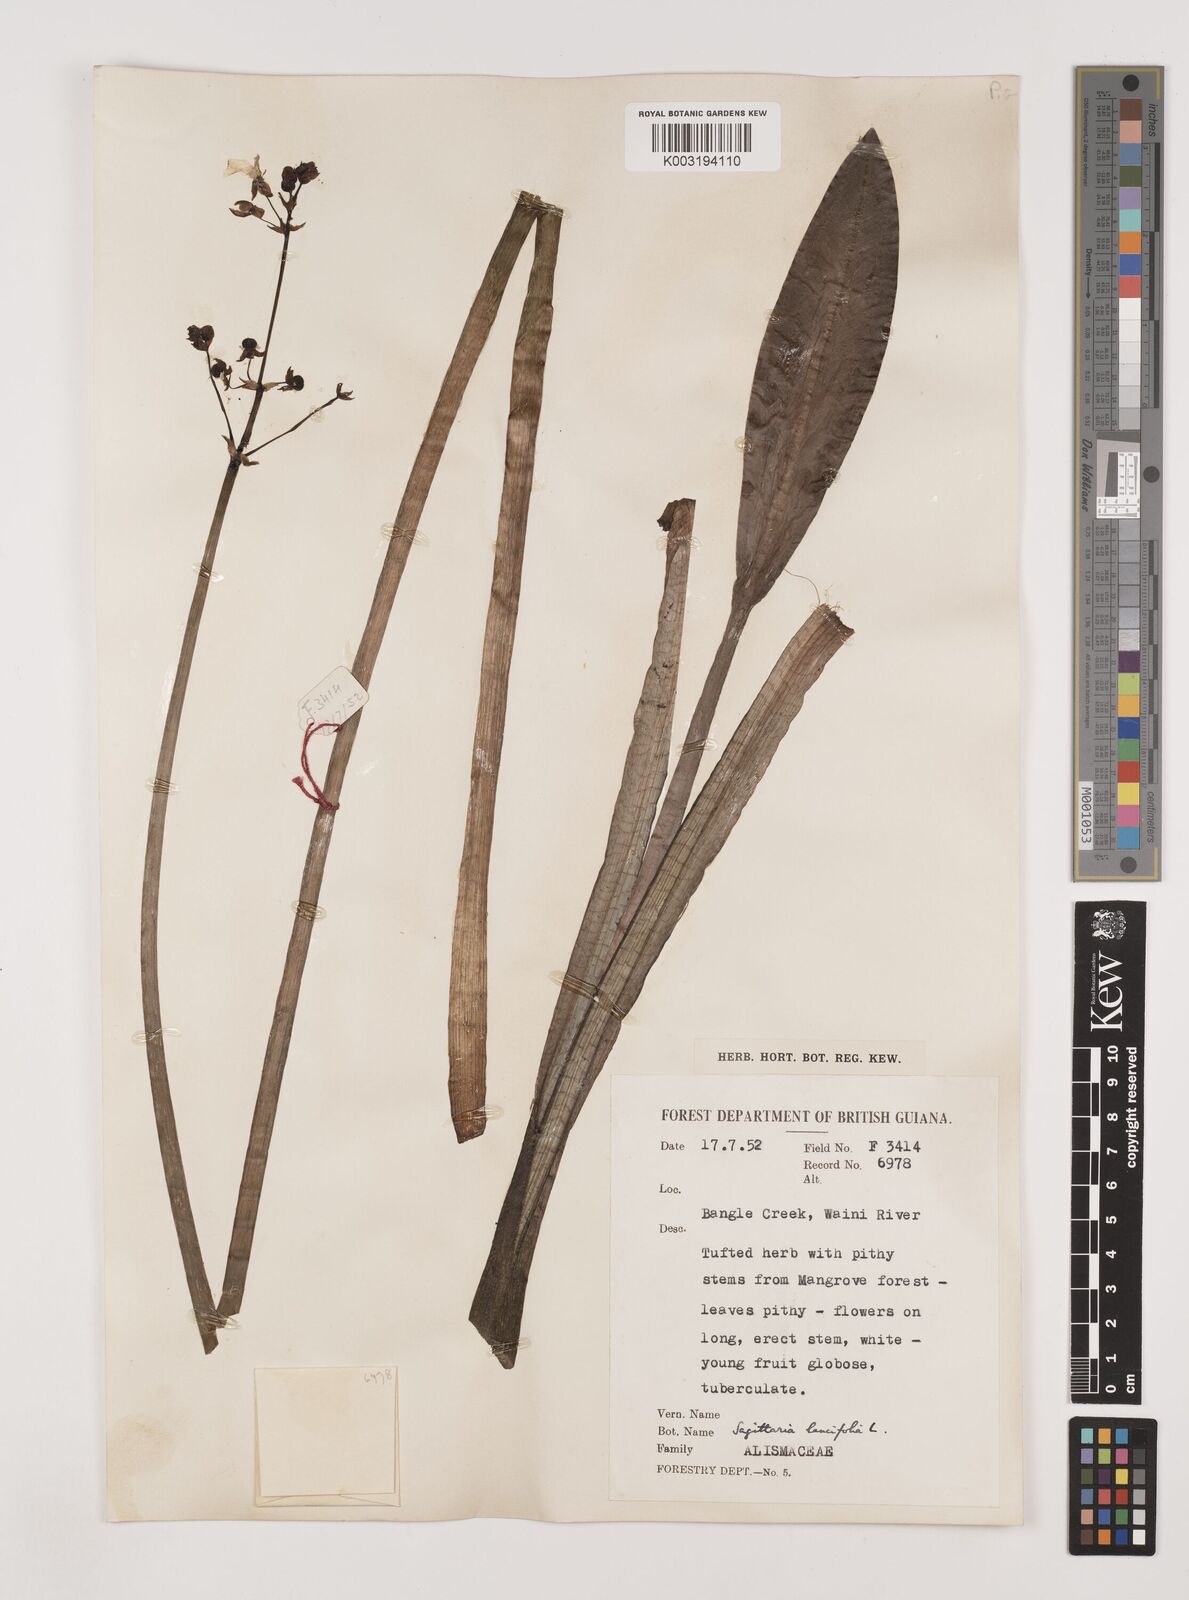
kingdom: Plantae
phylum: Tracheophyta
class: Liliopsida
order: Alismatales
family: Alismataceae
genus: Sagittaria
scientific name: Sagittaria lancifolia
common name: Lance-leaf arrowhead
